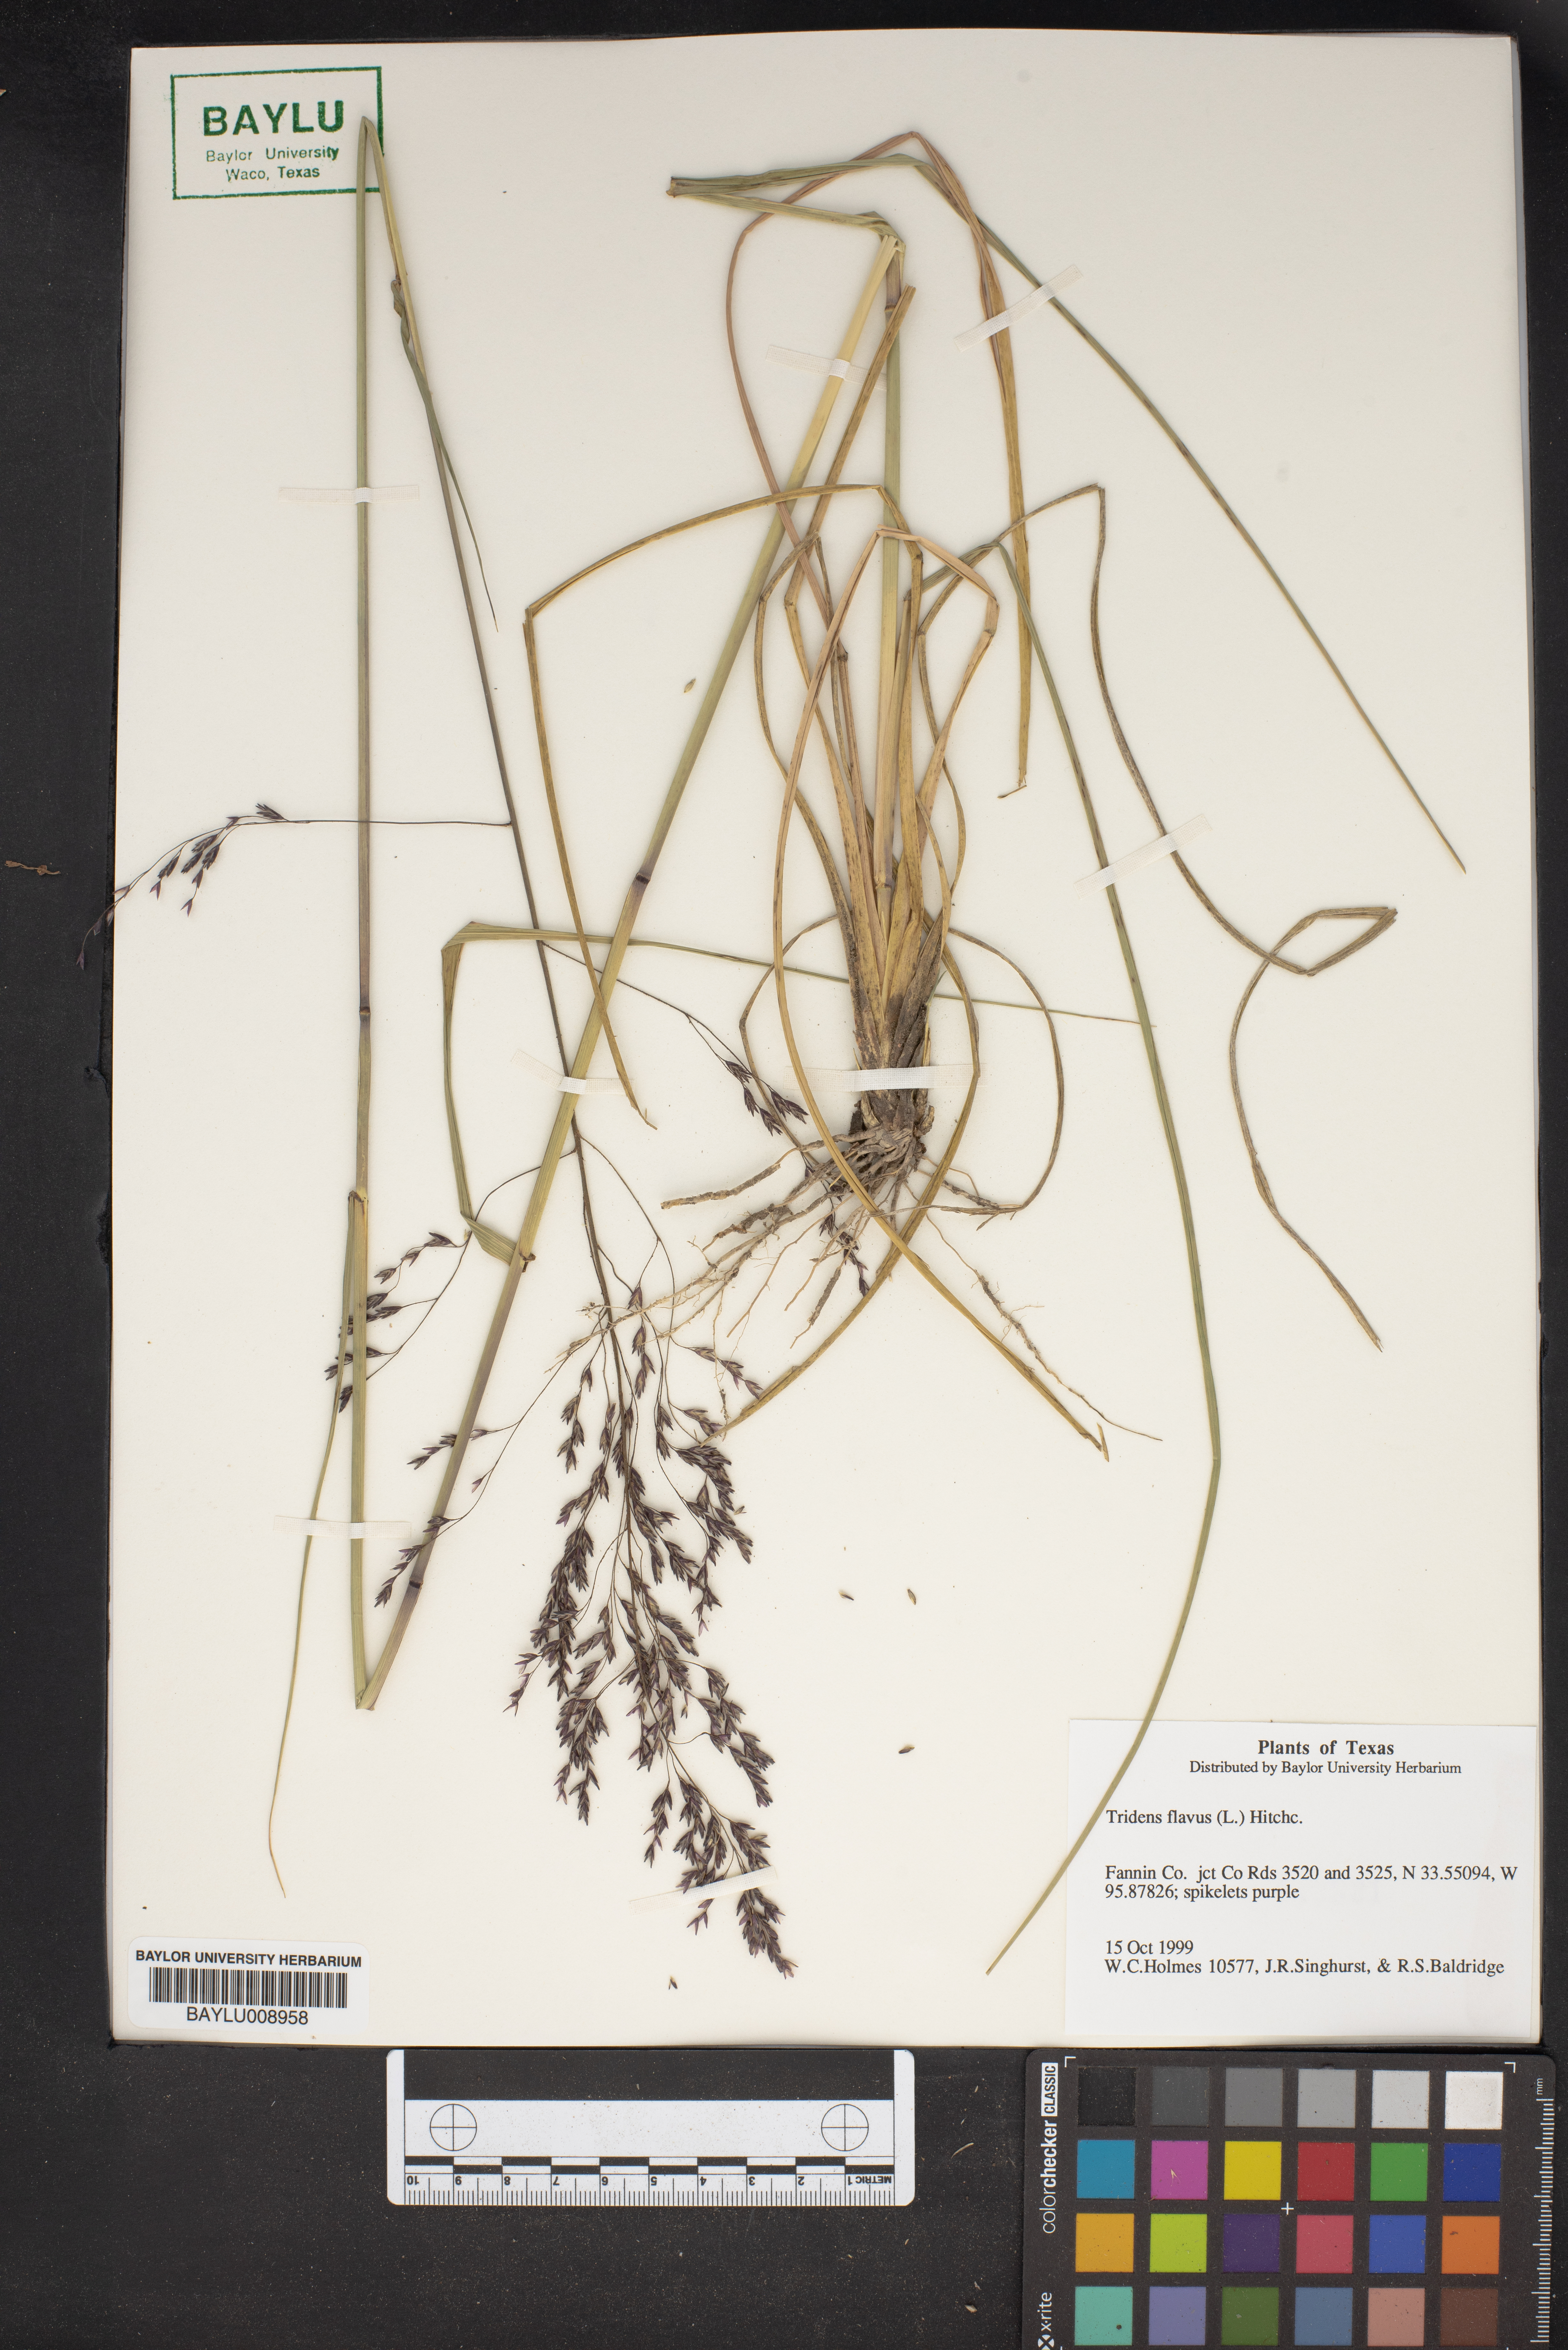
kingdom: Plantae
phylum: Tracheophyta
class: Liliopsida
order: Poales
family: Poaceae
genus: Tridens
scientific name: Tridens flavus
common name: Purpletop
